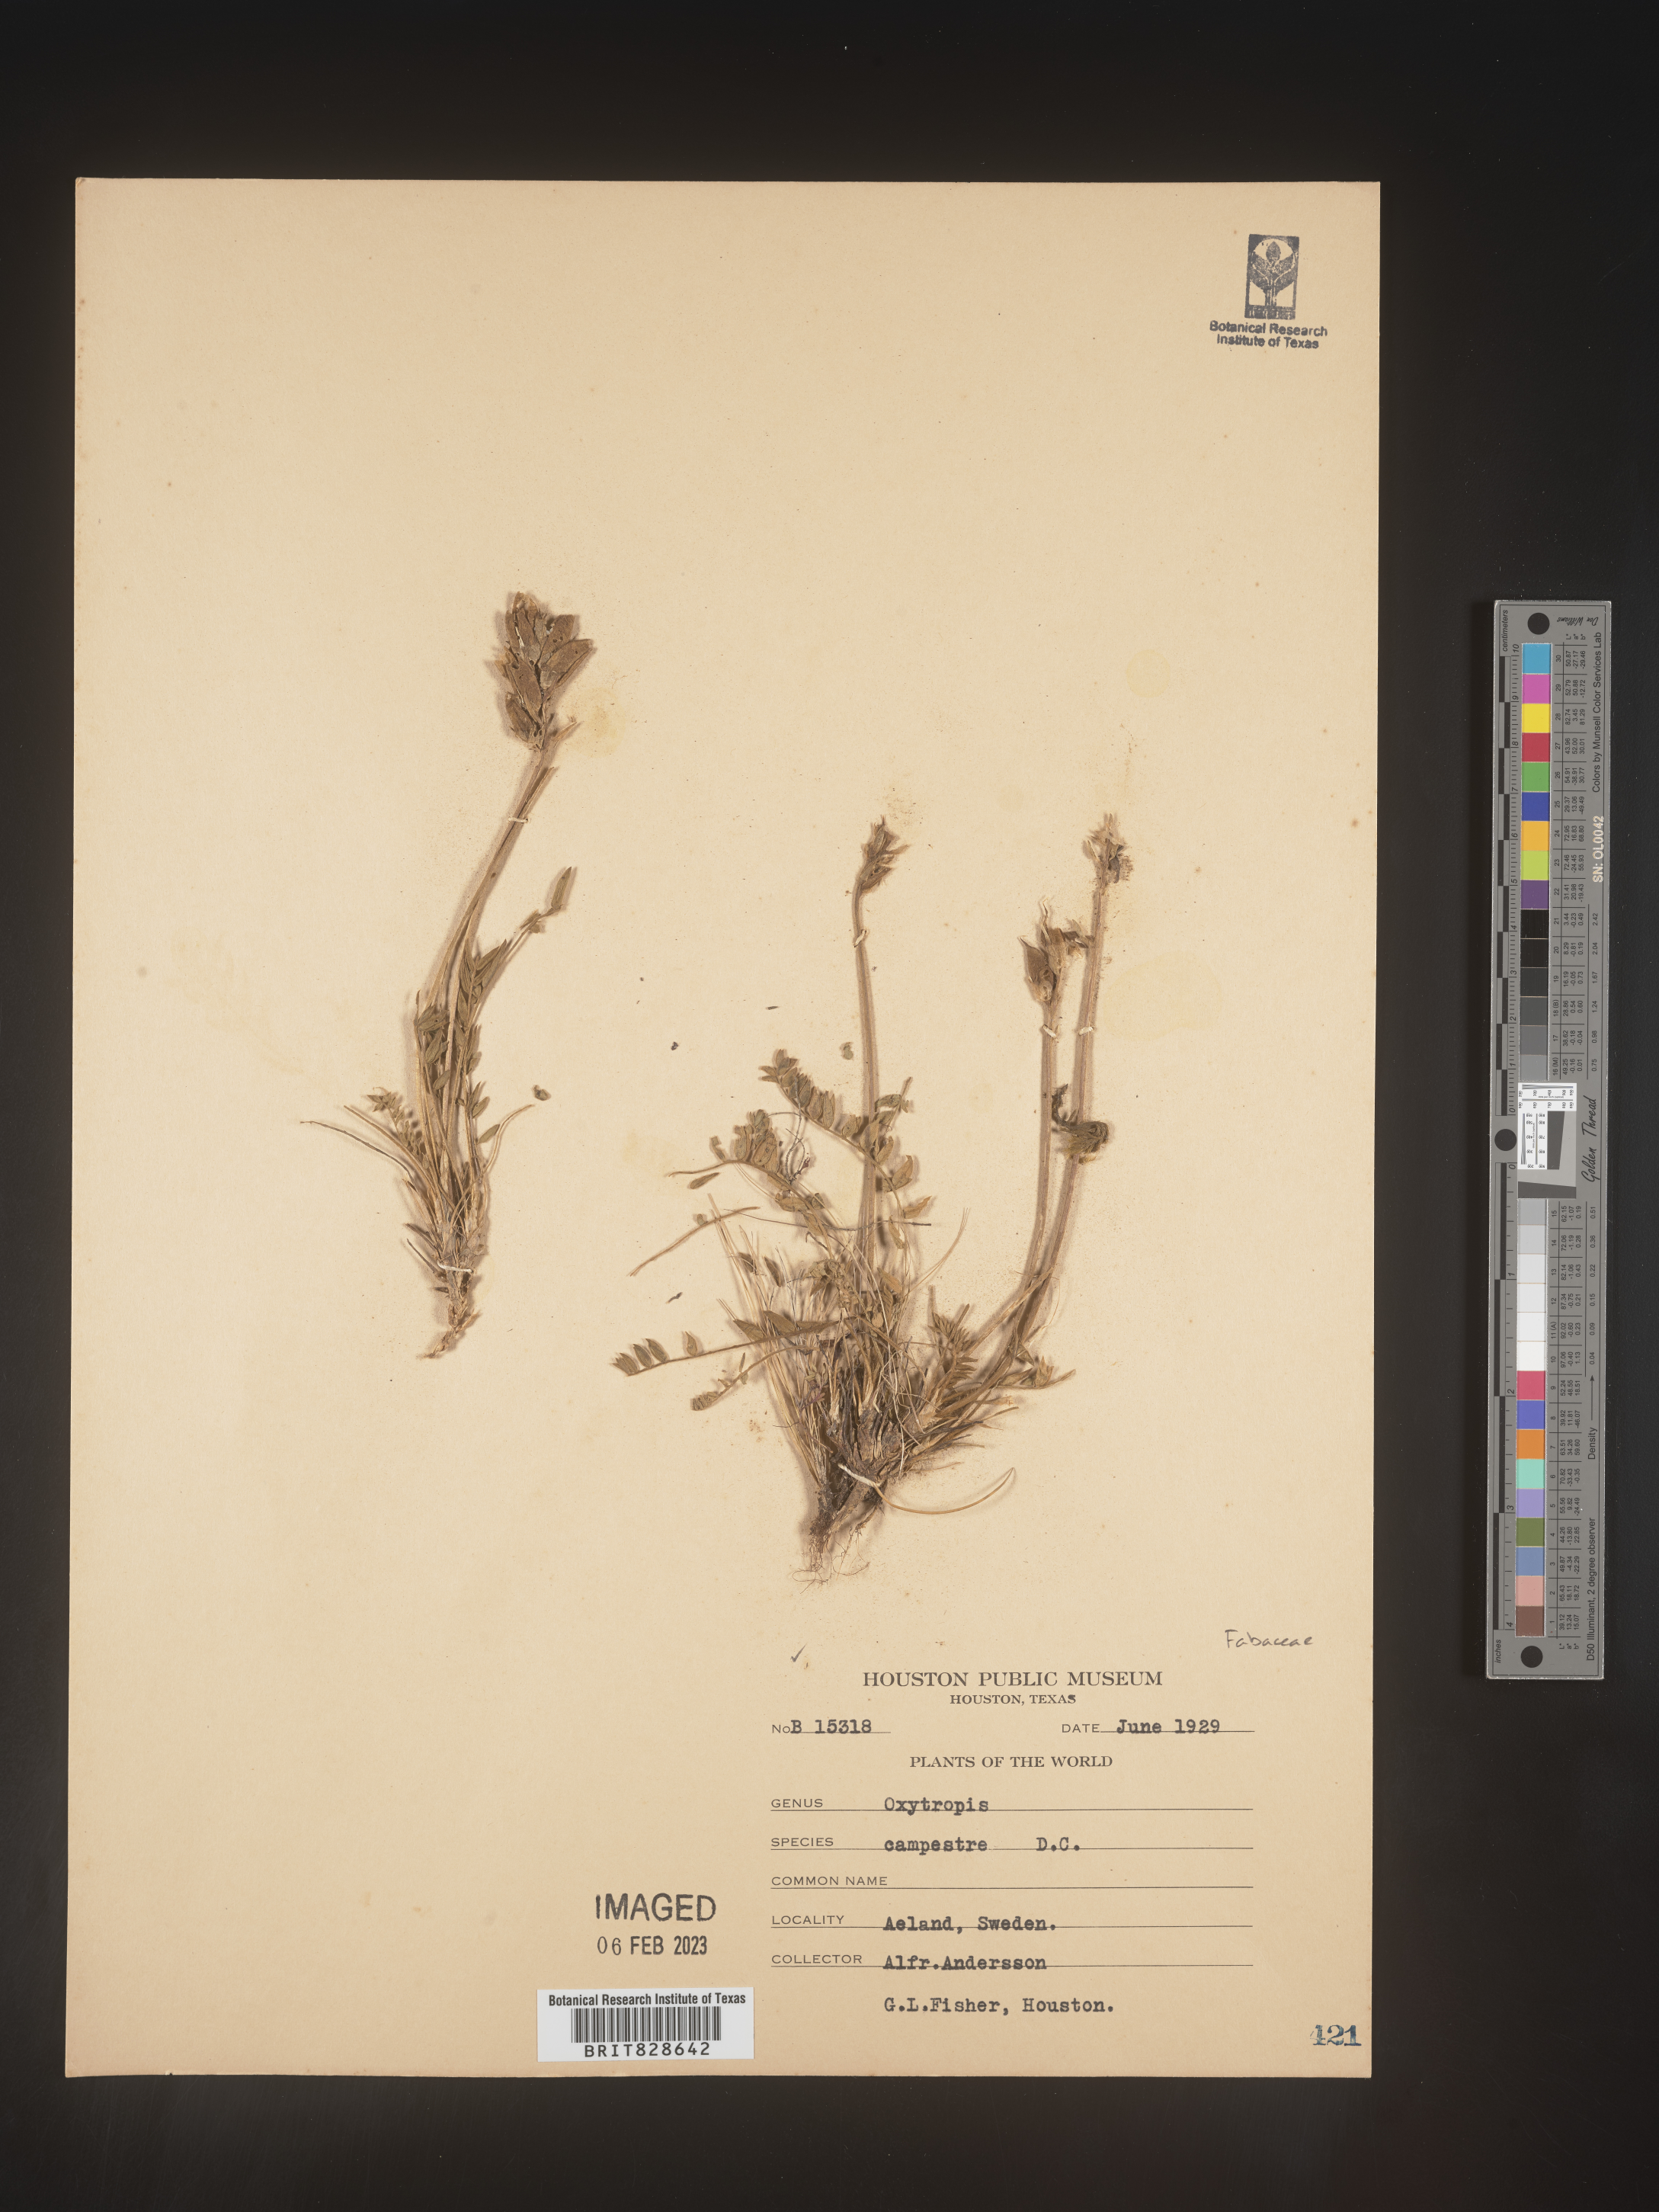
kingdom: Plantae
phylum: Tracheophyta
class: Magnoliopsida
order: Fabales
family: Fabaceae
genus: Oxytropis
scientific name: Oxytropis
